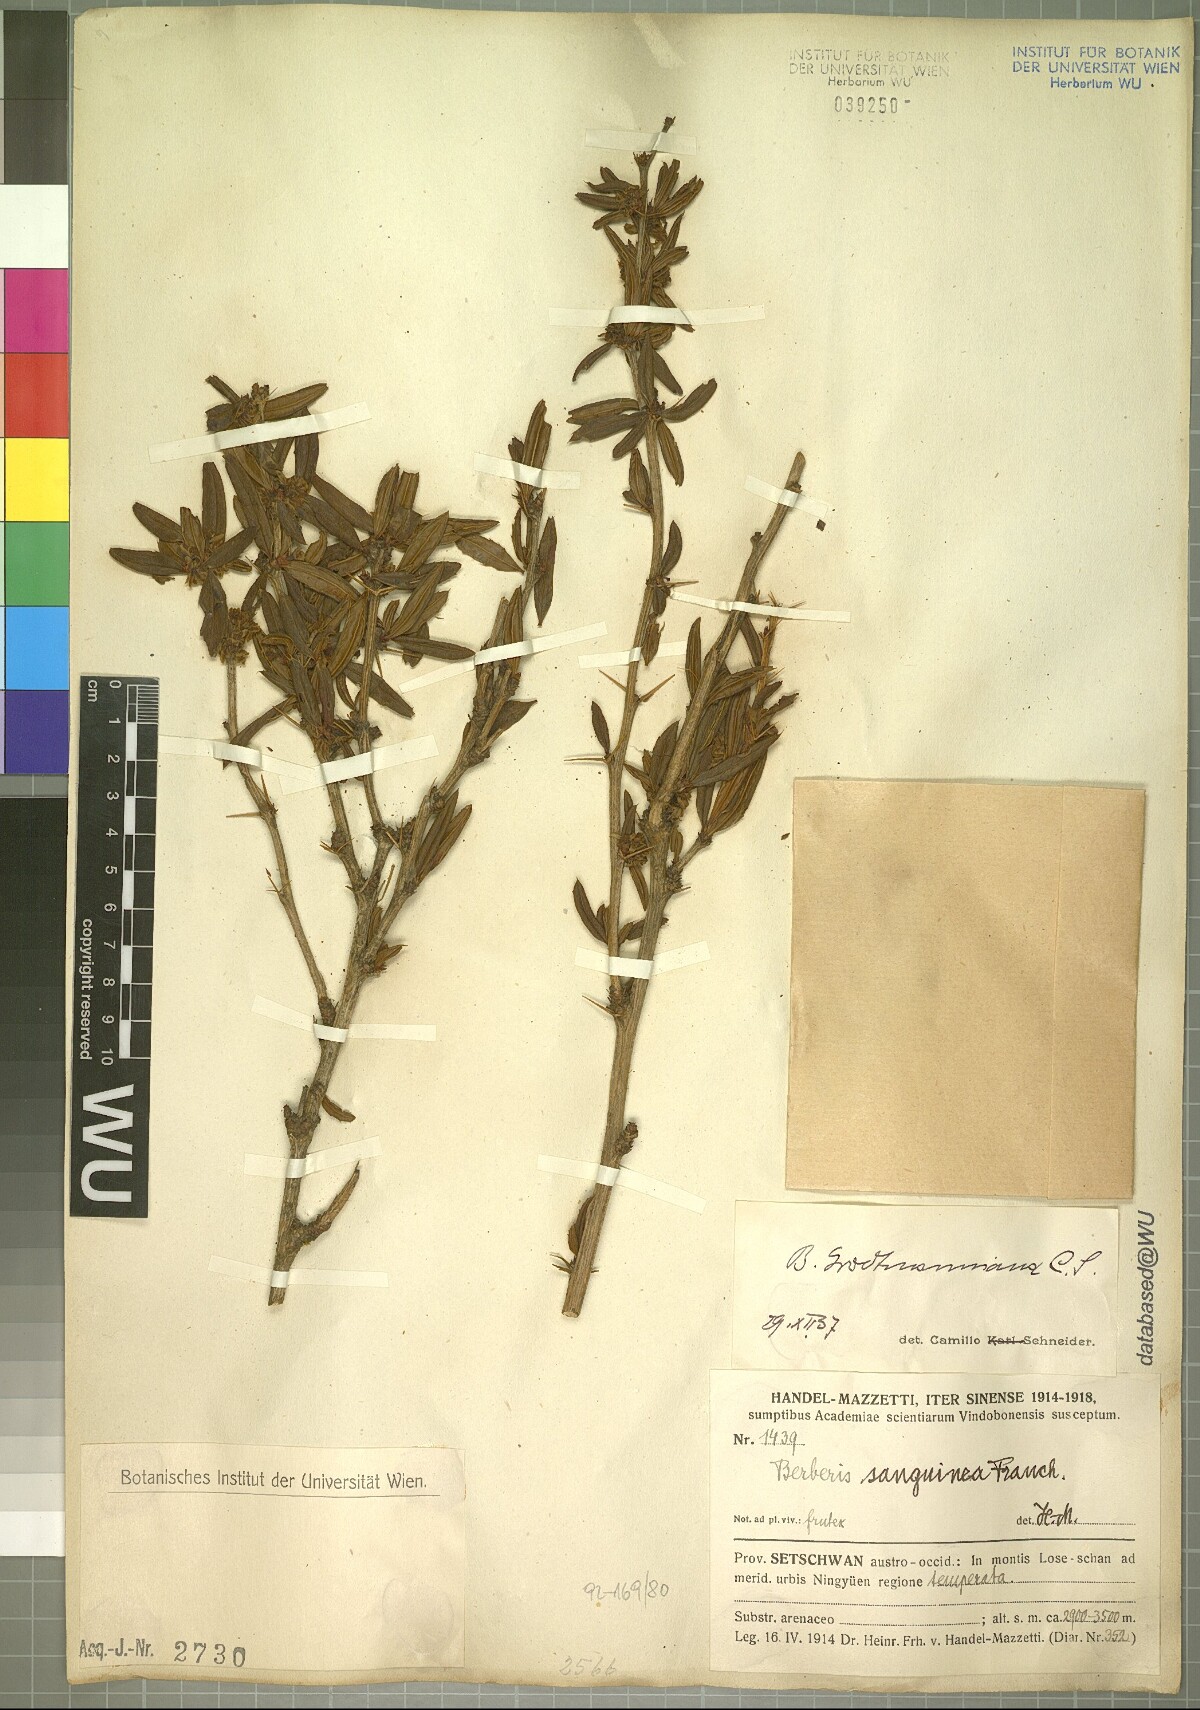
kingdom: Plantae
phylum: Tracheophyta
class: Magnoliopsida
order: Ranunculales
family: Berberidaceae
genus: Berberis
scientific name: Berberis grodtmanniana
